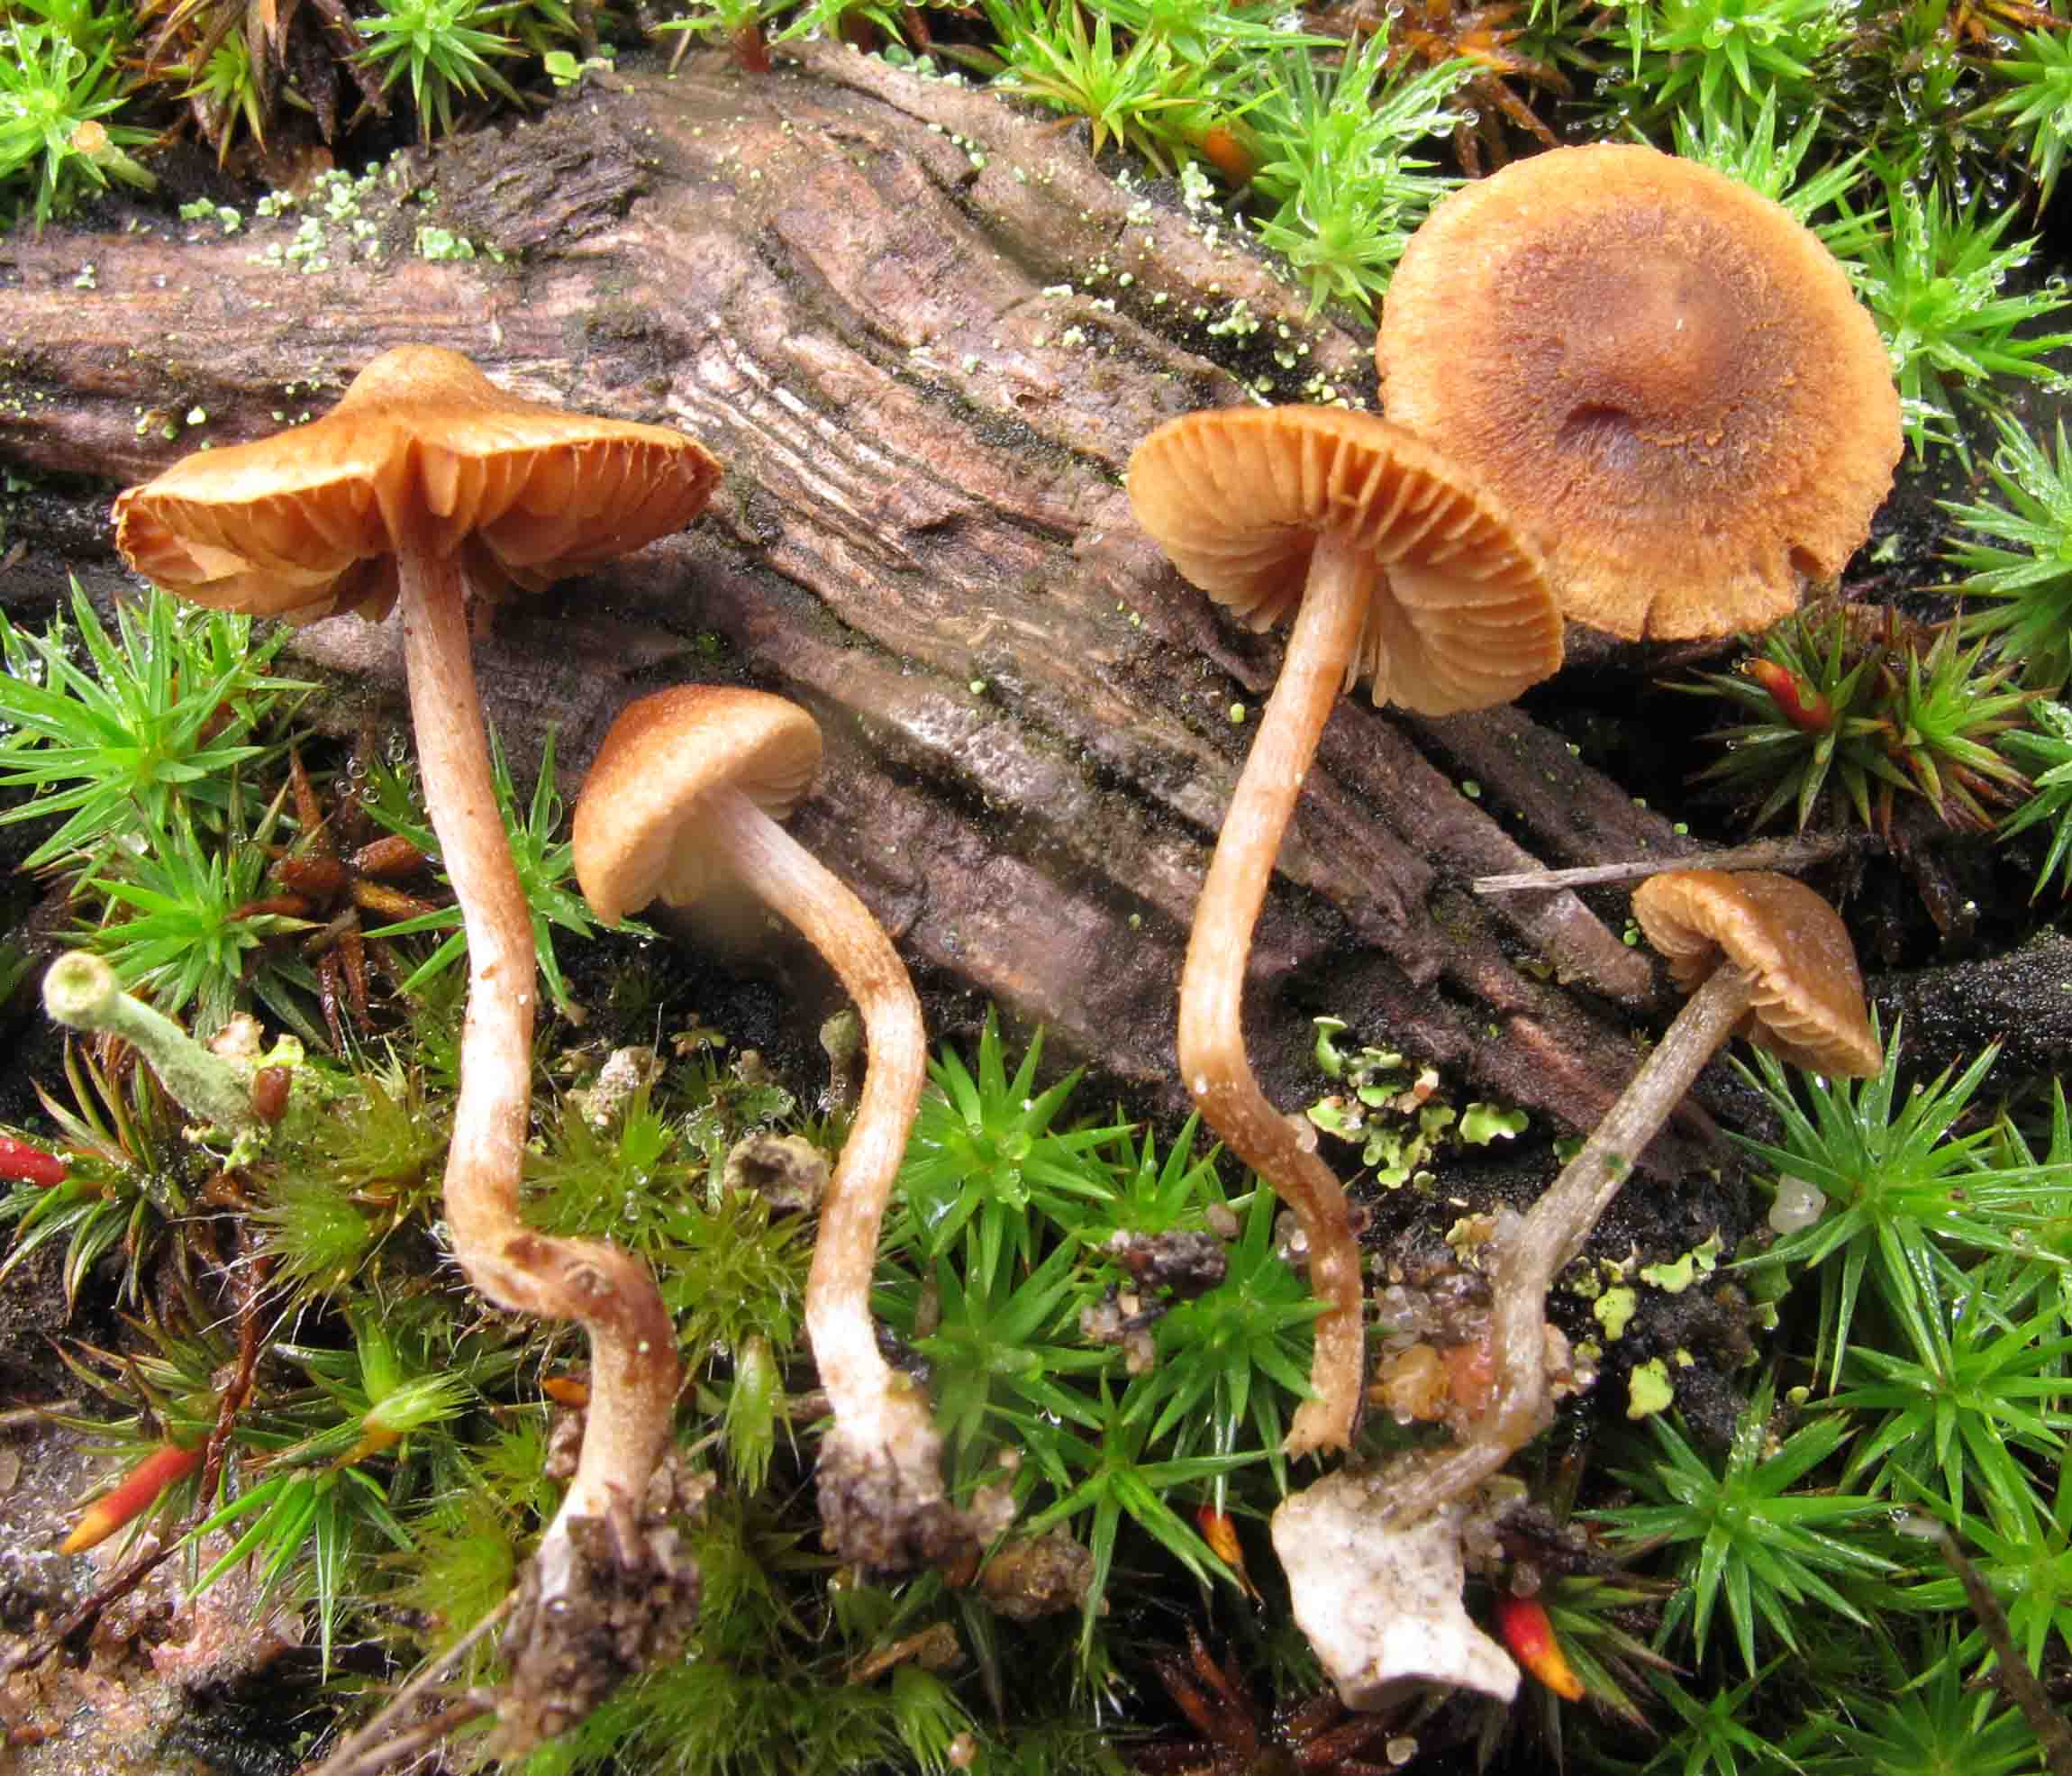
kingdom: Fungi
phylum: Basidiomycota
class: Agaricomycetes
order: Agaricales
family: Inocybaceae
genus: Inocybe
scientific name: Inocybe rufoalba
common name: dværg-trævlhat
